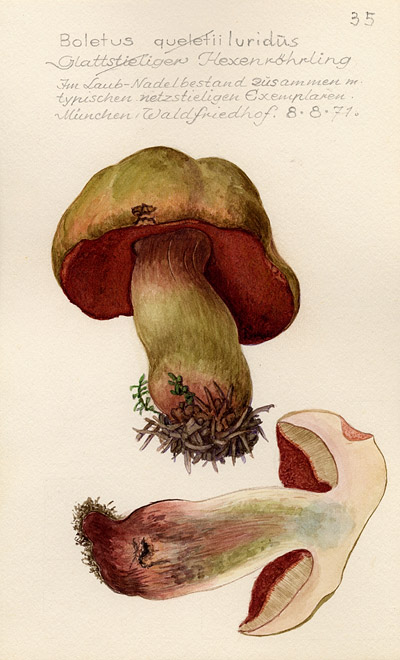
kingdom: Fungi
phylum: Basidiomycota
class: Agaricomycetes
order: Boletales
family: Boletaceae
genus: Suillellus
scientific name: Suillellus luridus
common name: Lurid bolete
